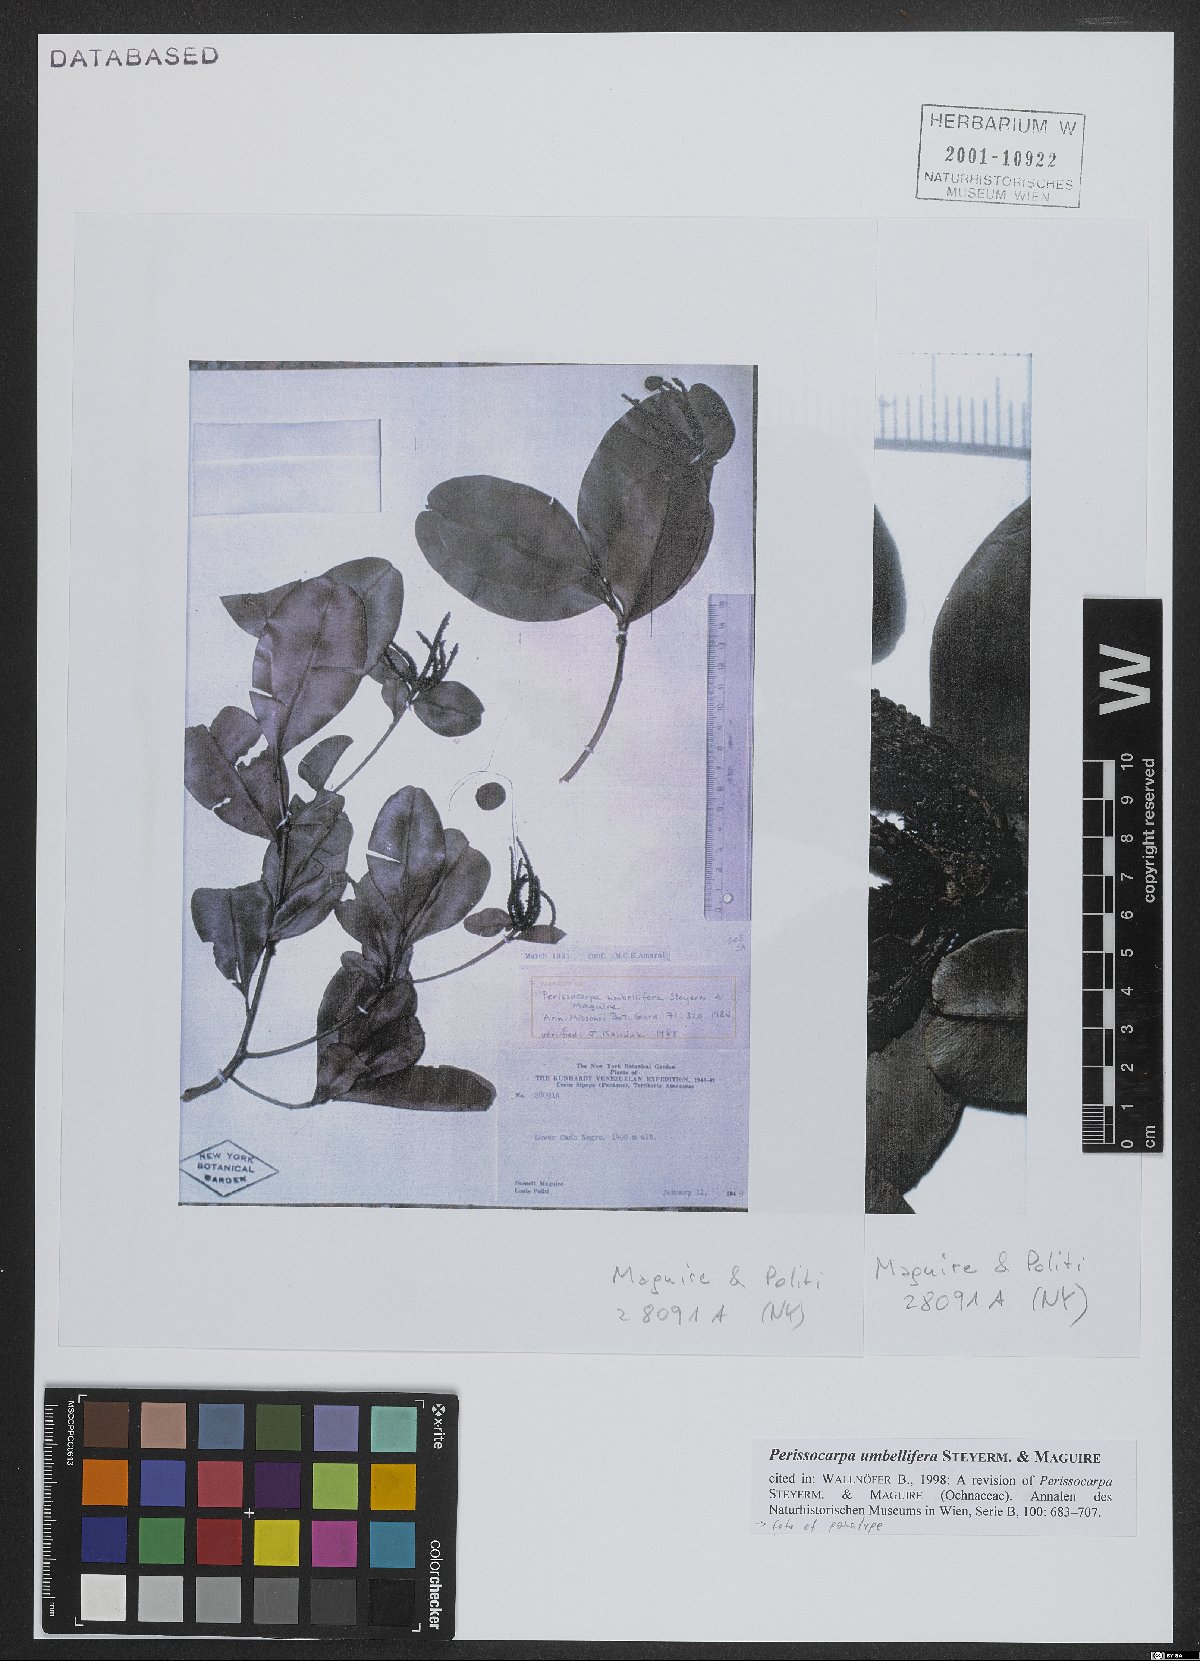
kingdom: Plantae
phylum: Tracheophyta
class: Magnoliopsida
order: Malpighiales
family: Ochnaceae
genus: Perissocarpa
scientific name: Perissocarpa umbellifera
